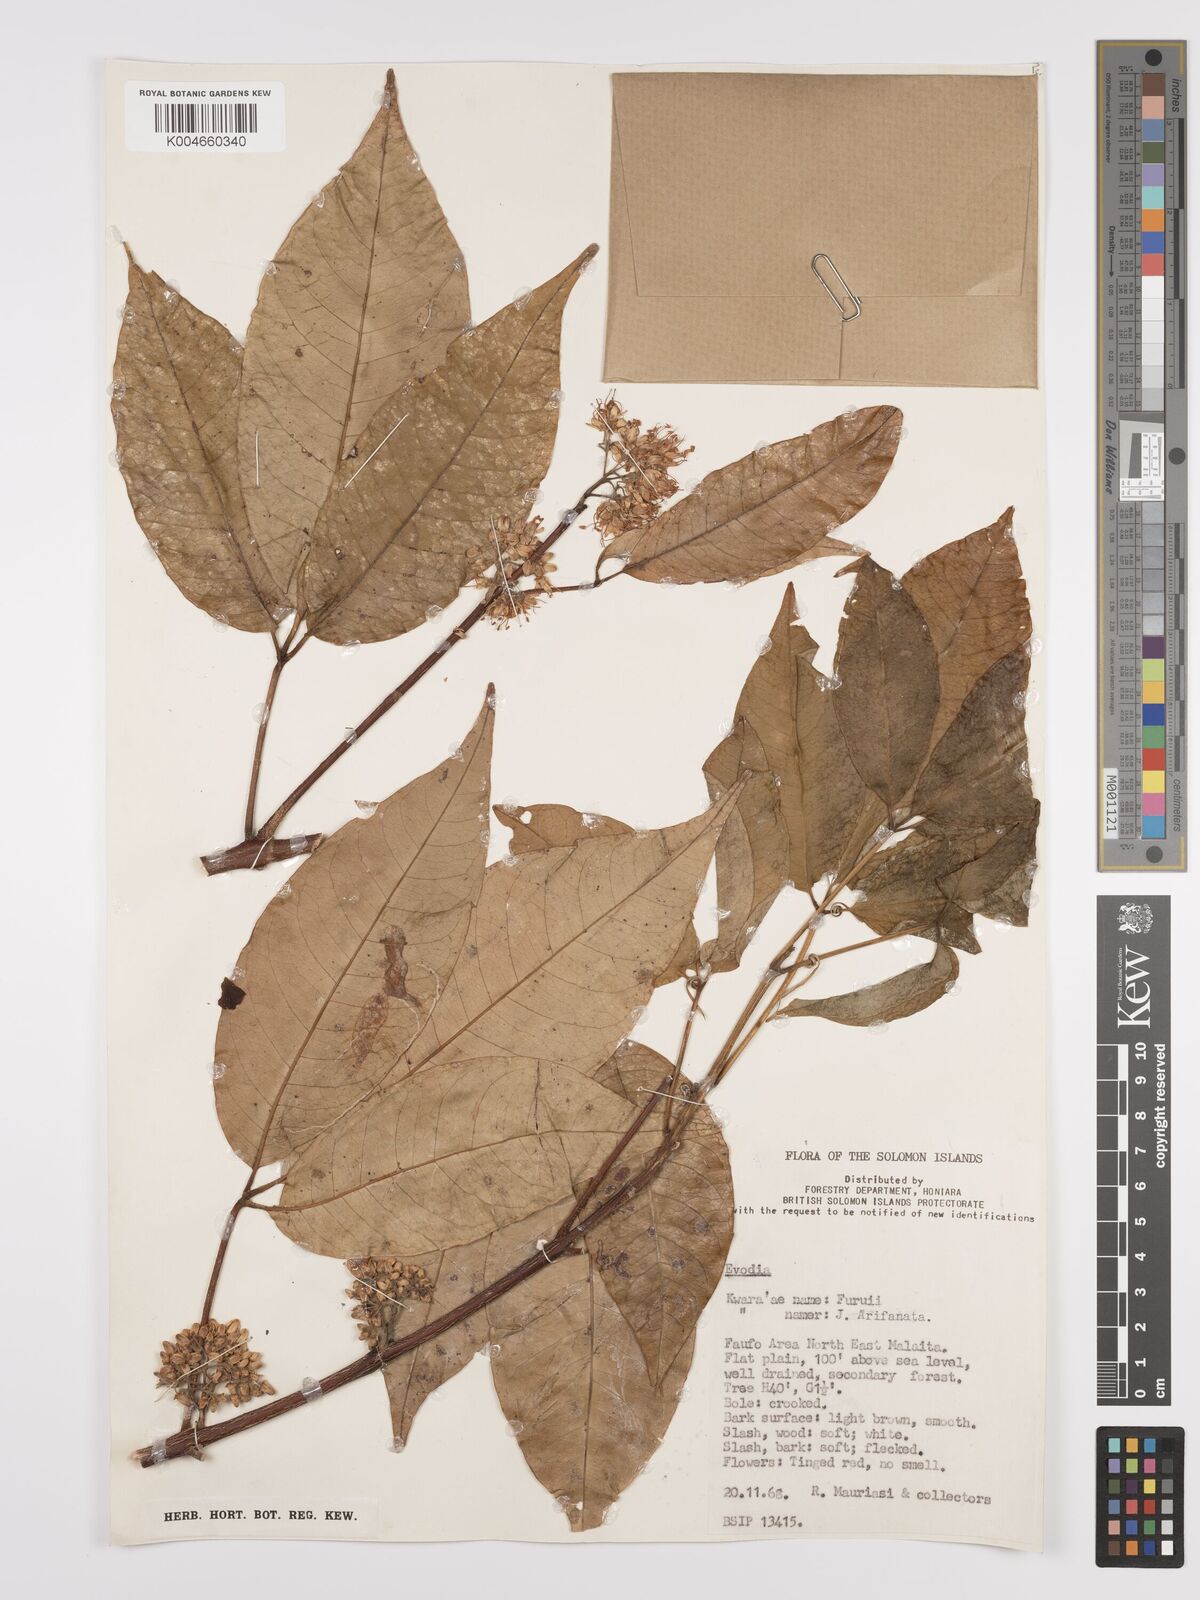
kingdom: Plantae
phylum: Tracheophyta
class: Magnoliopsida
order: Sapindales
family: Rutaceae
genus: Euodia
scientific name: Euodia
